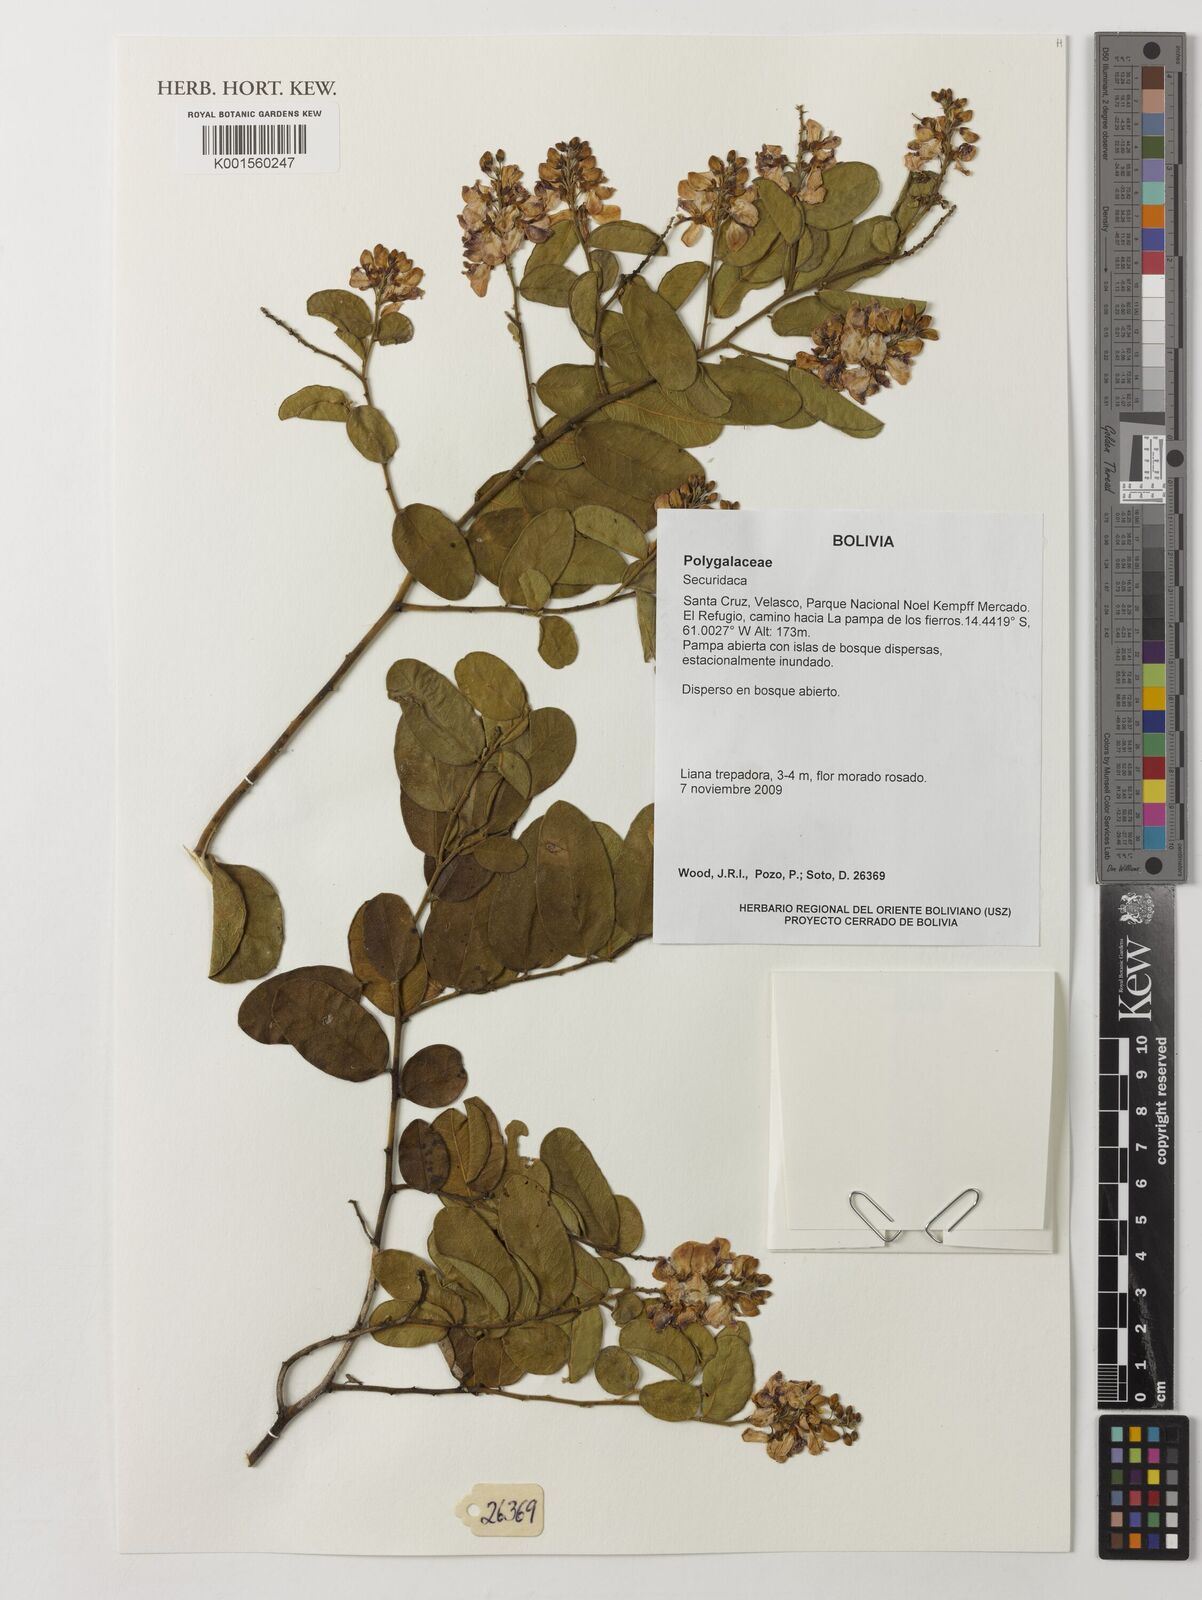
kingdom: Plantae
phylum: Tracheophyta
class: Magnoliopsida
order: Fabales
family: Polygalaceae
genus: Securidaca
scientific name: Securidaca
